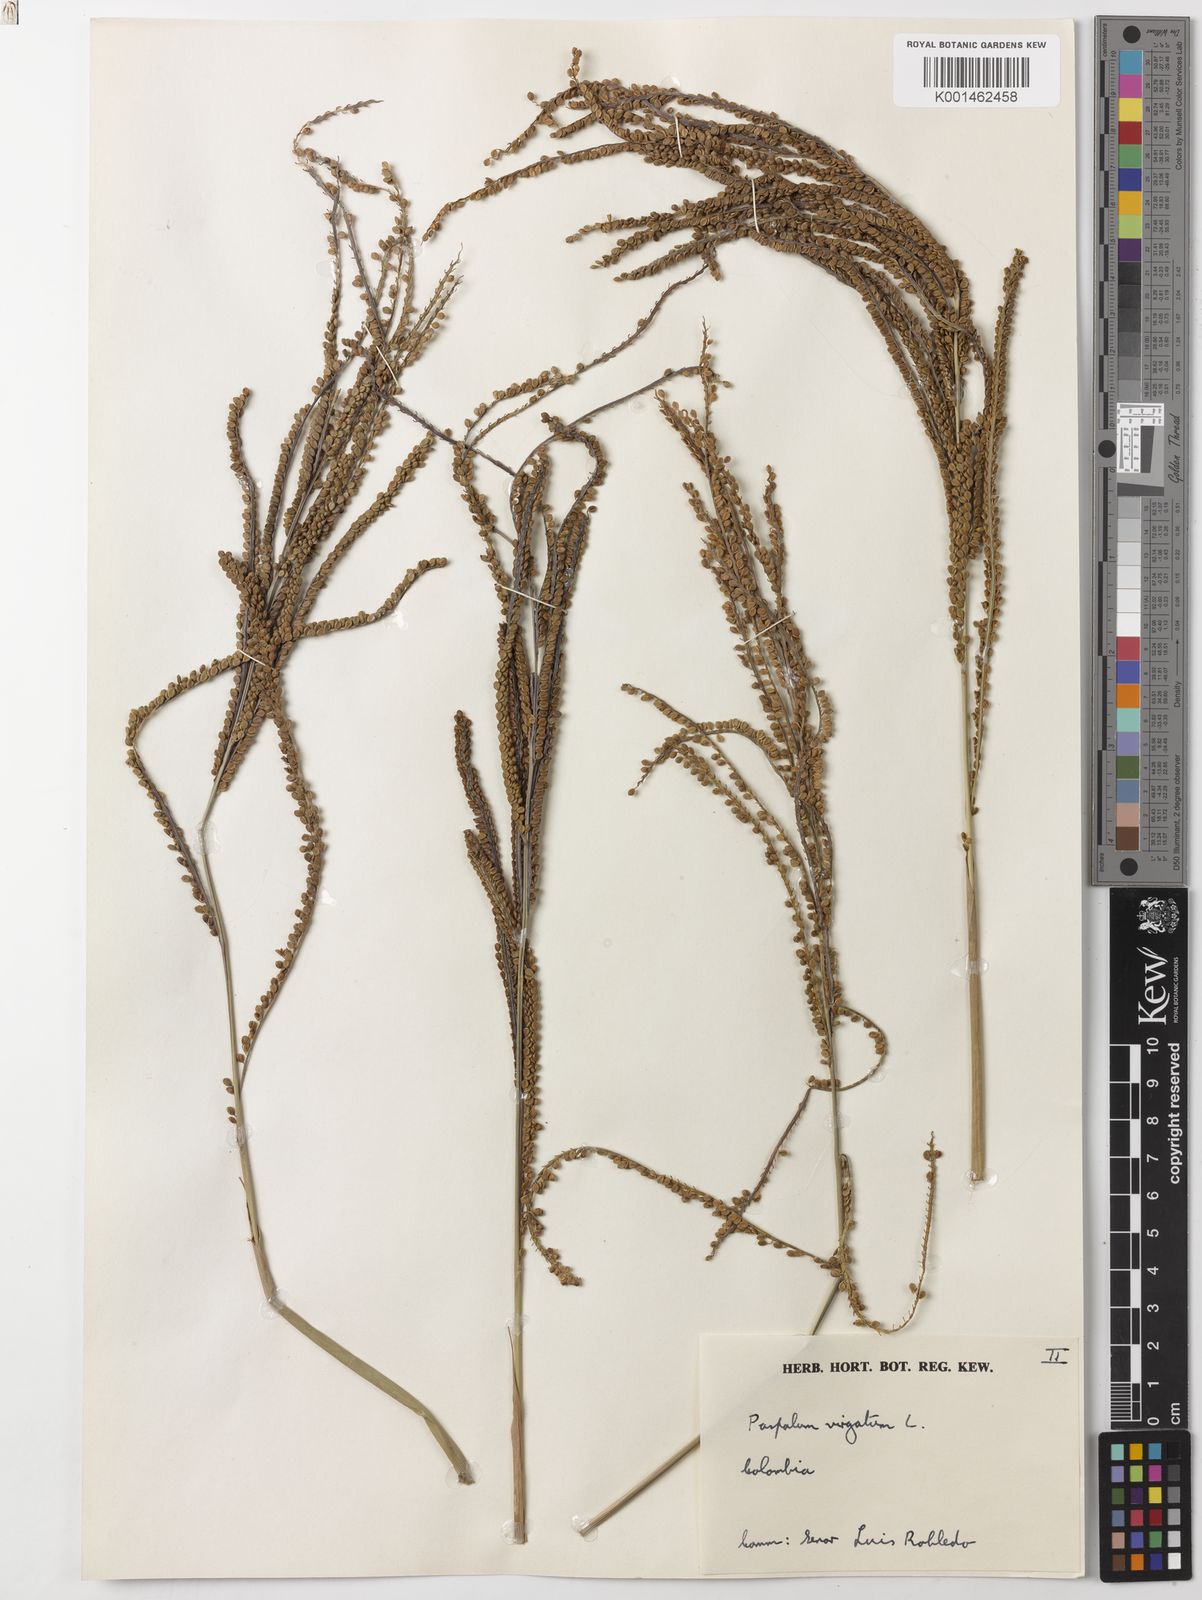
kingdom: Plantae
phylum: Tracheophyta
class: Liliopsida
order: Poales
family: Poaceae
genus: Paspalum
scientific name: Paspalum virgatum
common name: Talquezal
